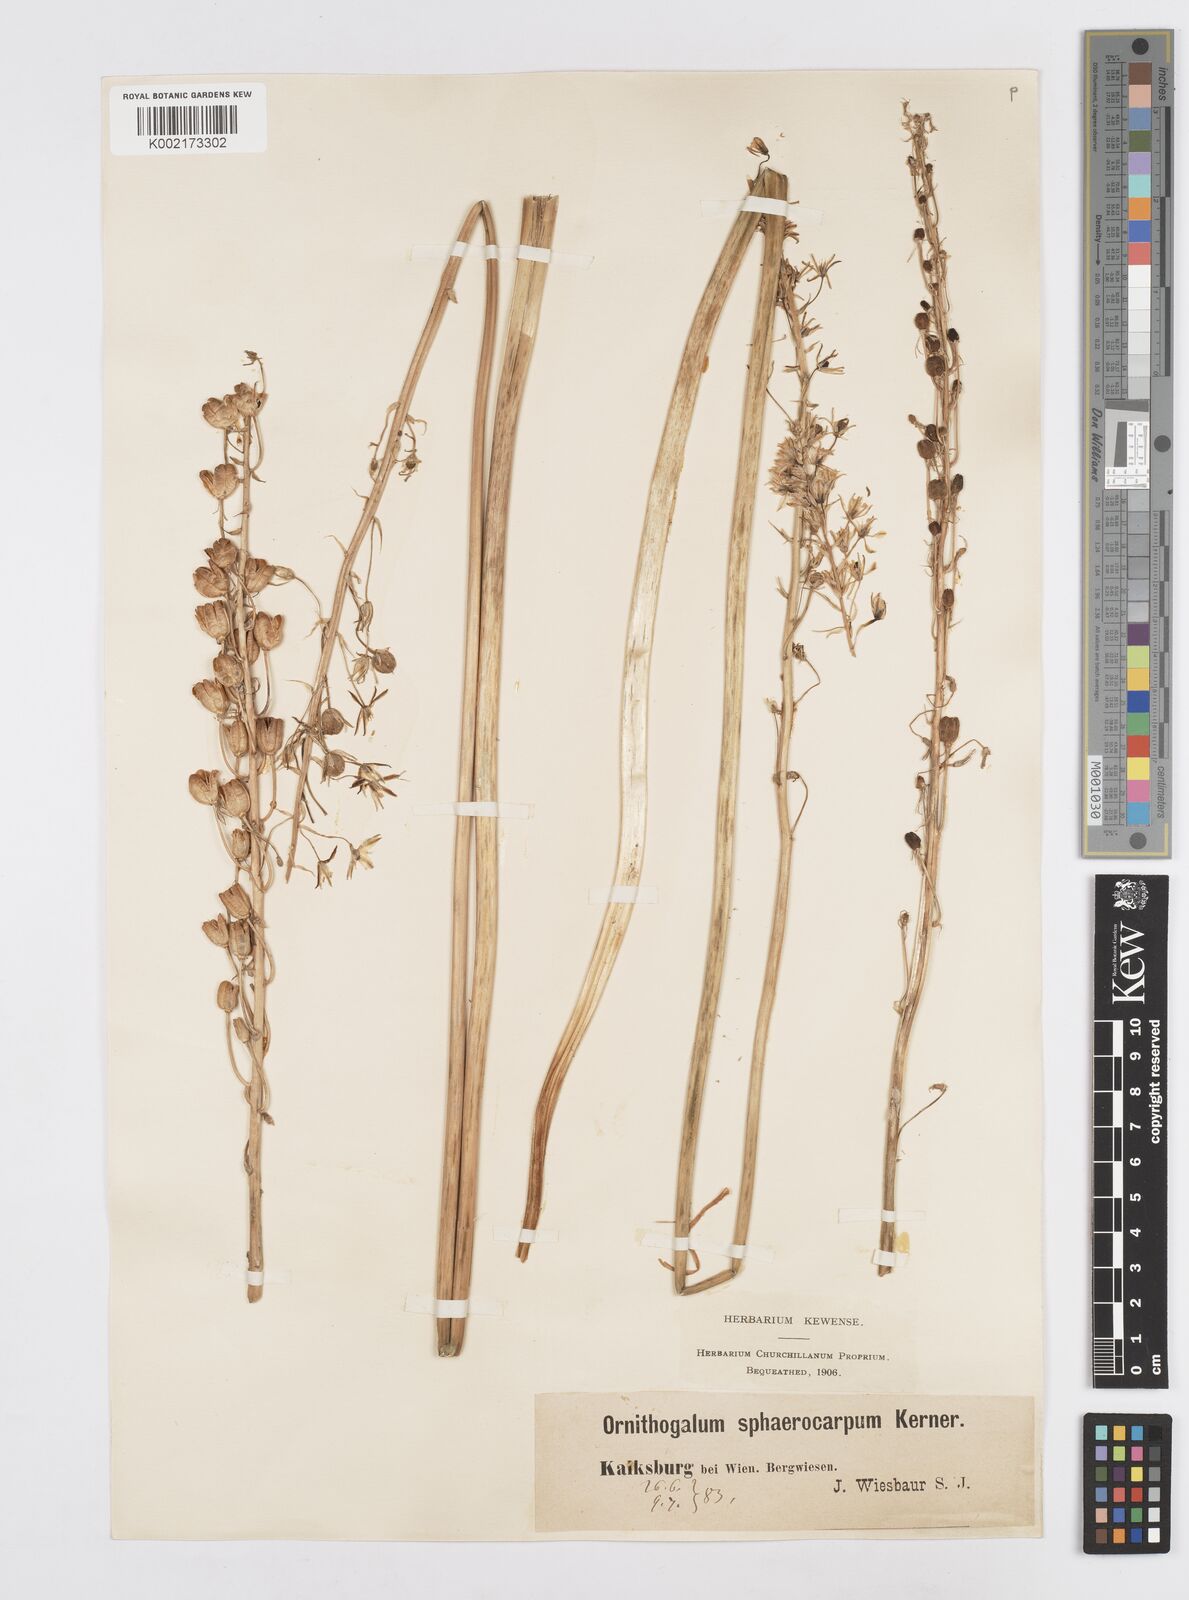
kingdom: Plantae
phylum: Tracheophyta
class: Liliopsida
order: Asparagales
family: Asparagaceae
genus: Ornithogalum
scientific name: Ornithogalum sphaerocarpum
